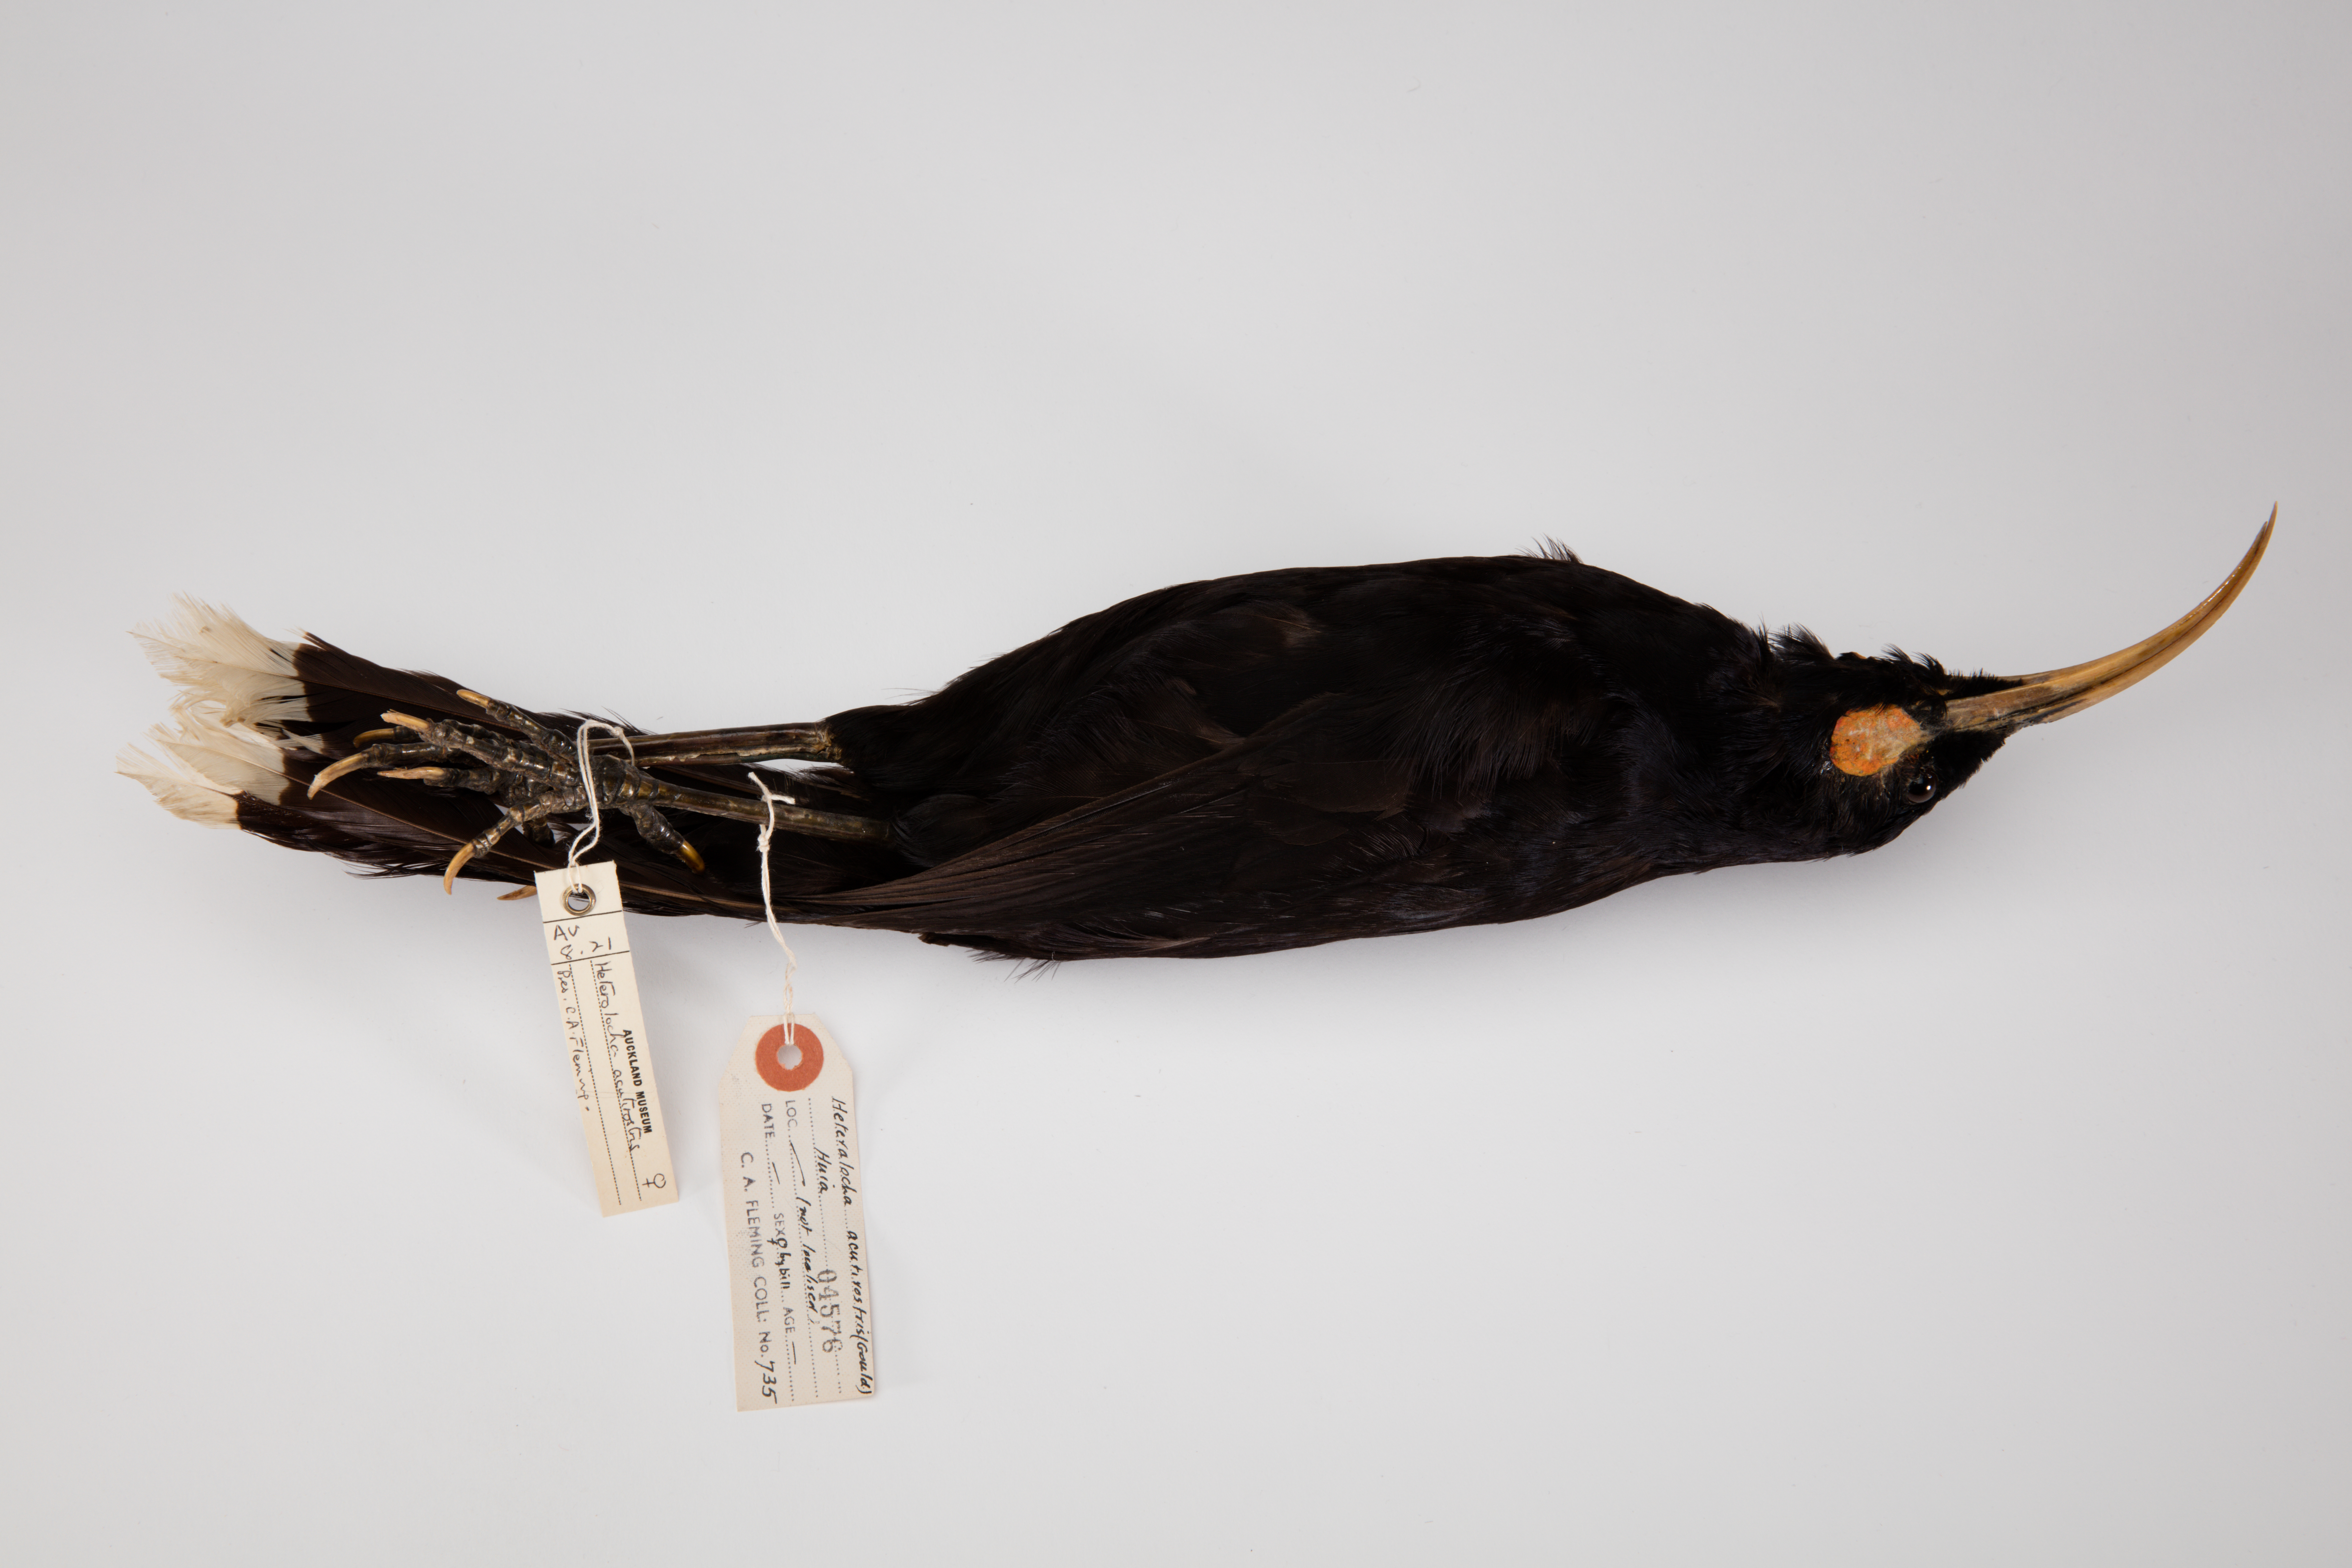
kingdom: Animalia
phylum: Chordata
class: Aves
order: Passeriformes
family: Callaeatidae
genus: Heteralocha
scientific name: Heteralocha acutirostris
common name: Huia
